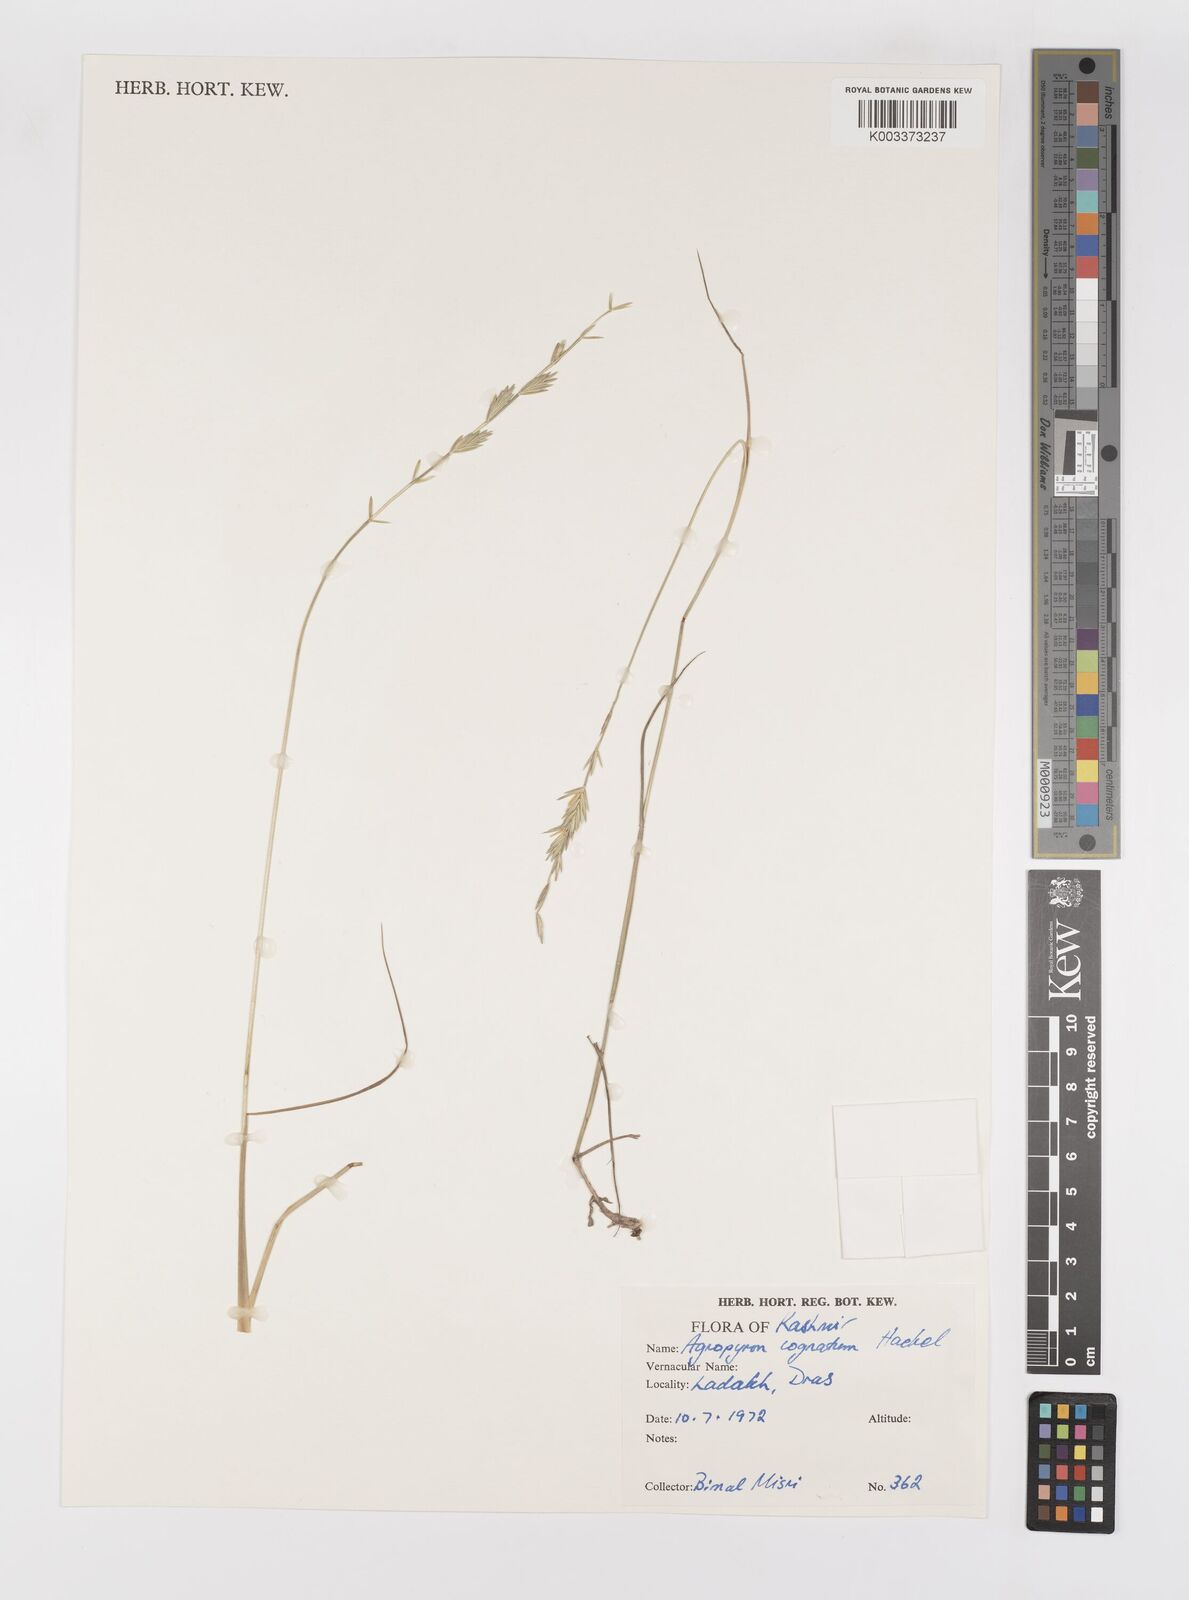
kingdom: Plantae
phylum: Tracheophyta
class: Liliopsida
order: Poales
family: Poaceae
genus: Pseudoroegneria
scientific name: Pseudoroegneria cognata
